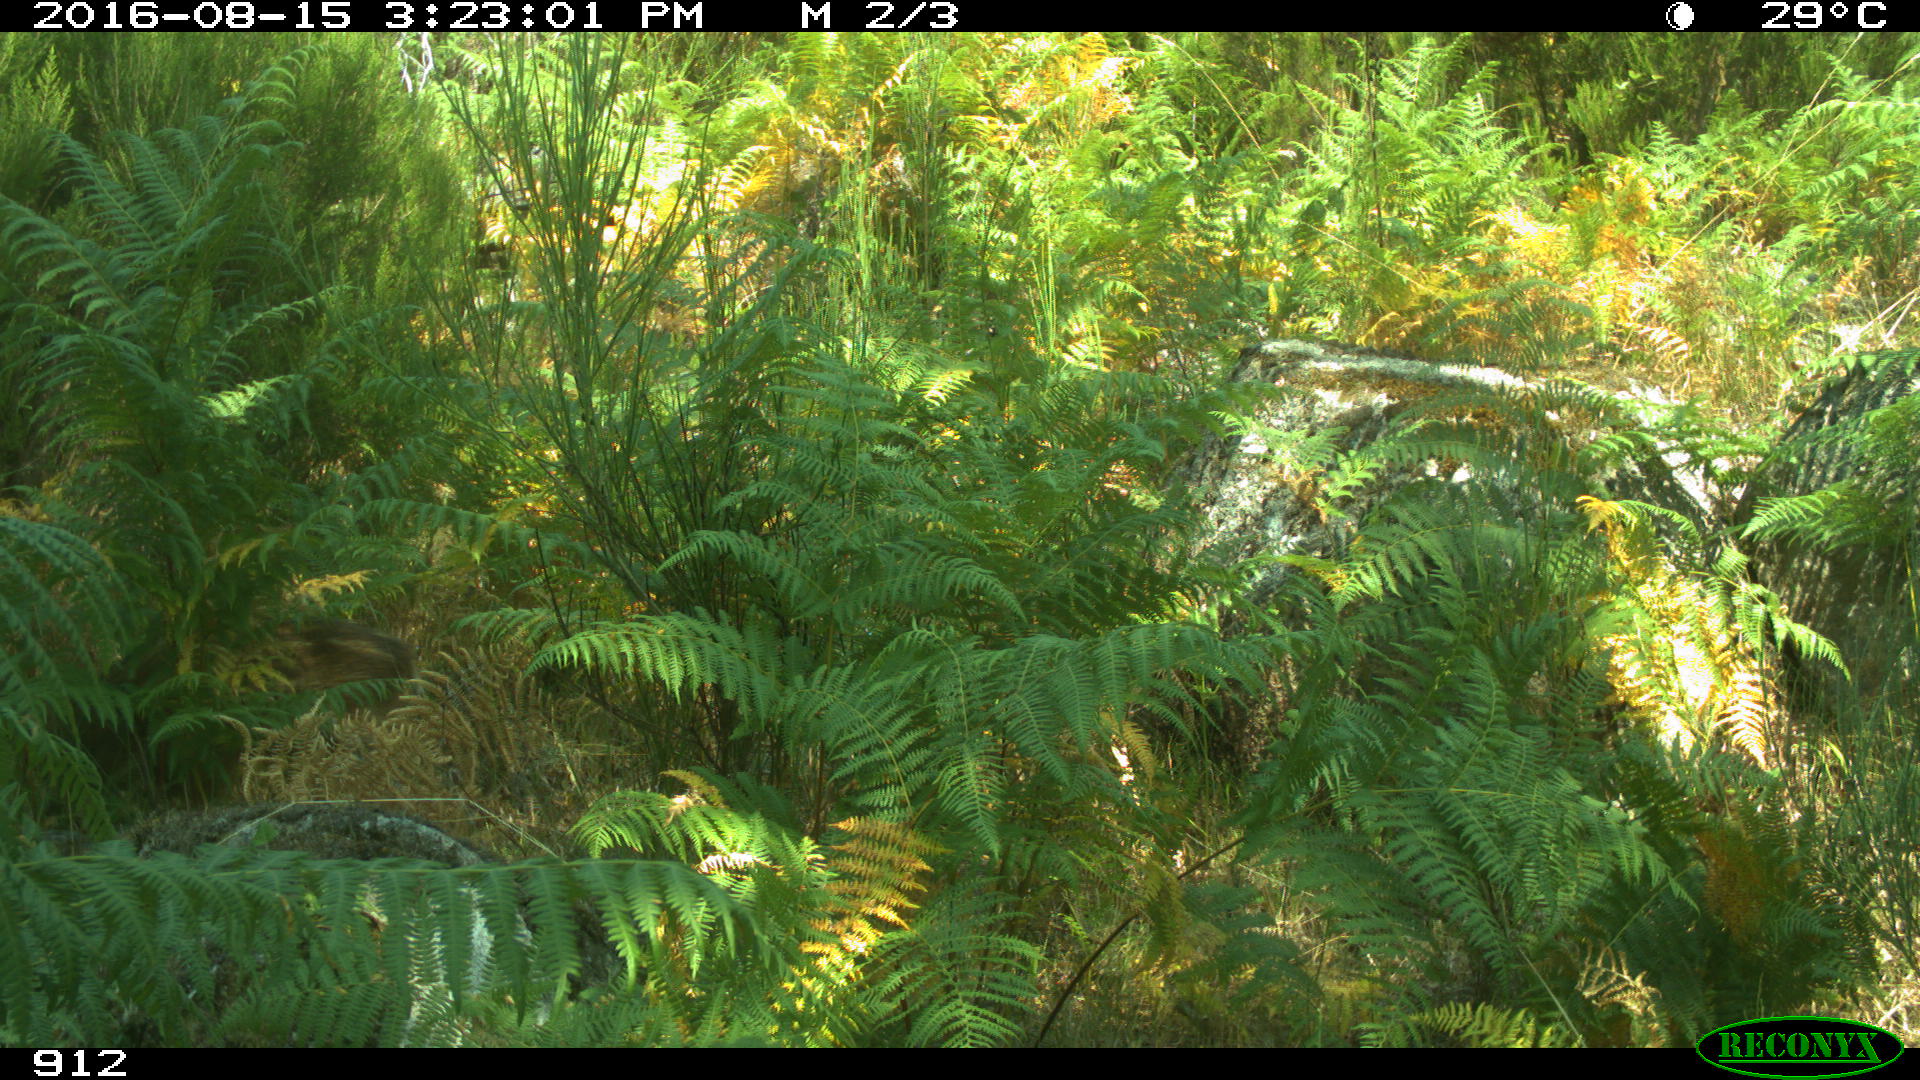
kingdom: Animalia
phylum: Chordata
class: Mammalia
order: Artiodactyla
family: Suidae
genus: Sus
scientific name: Sus scrofa
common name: Wild boar
